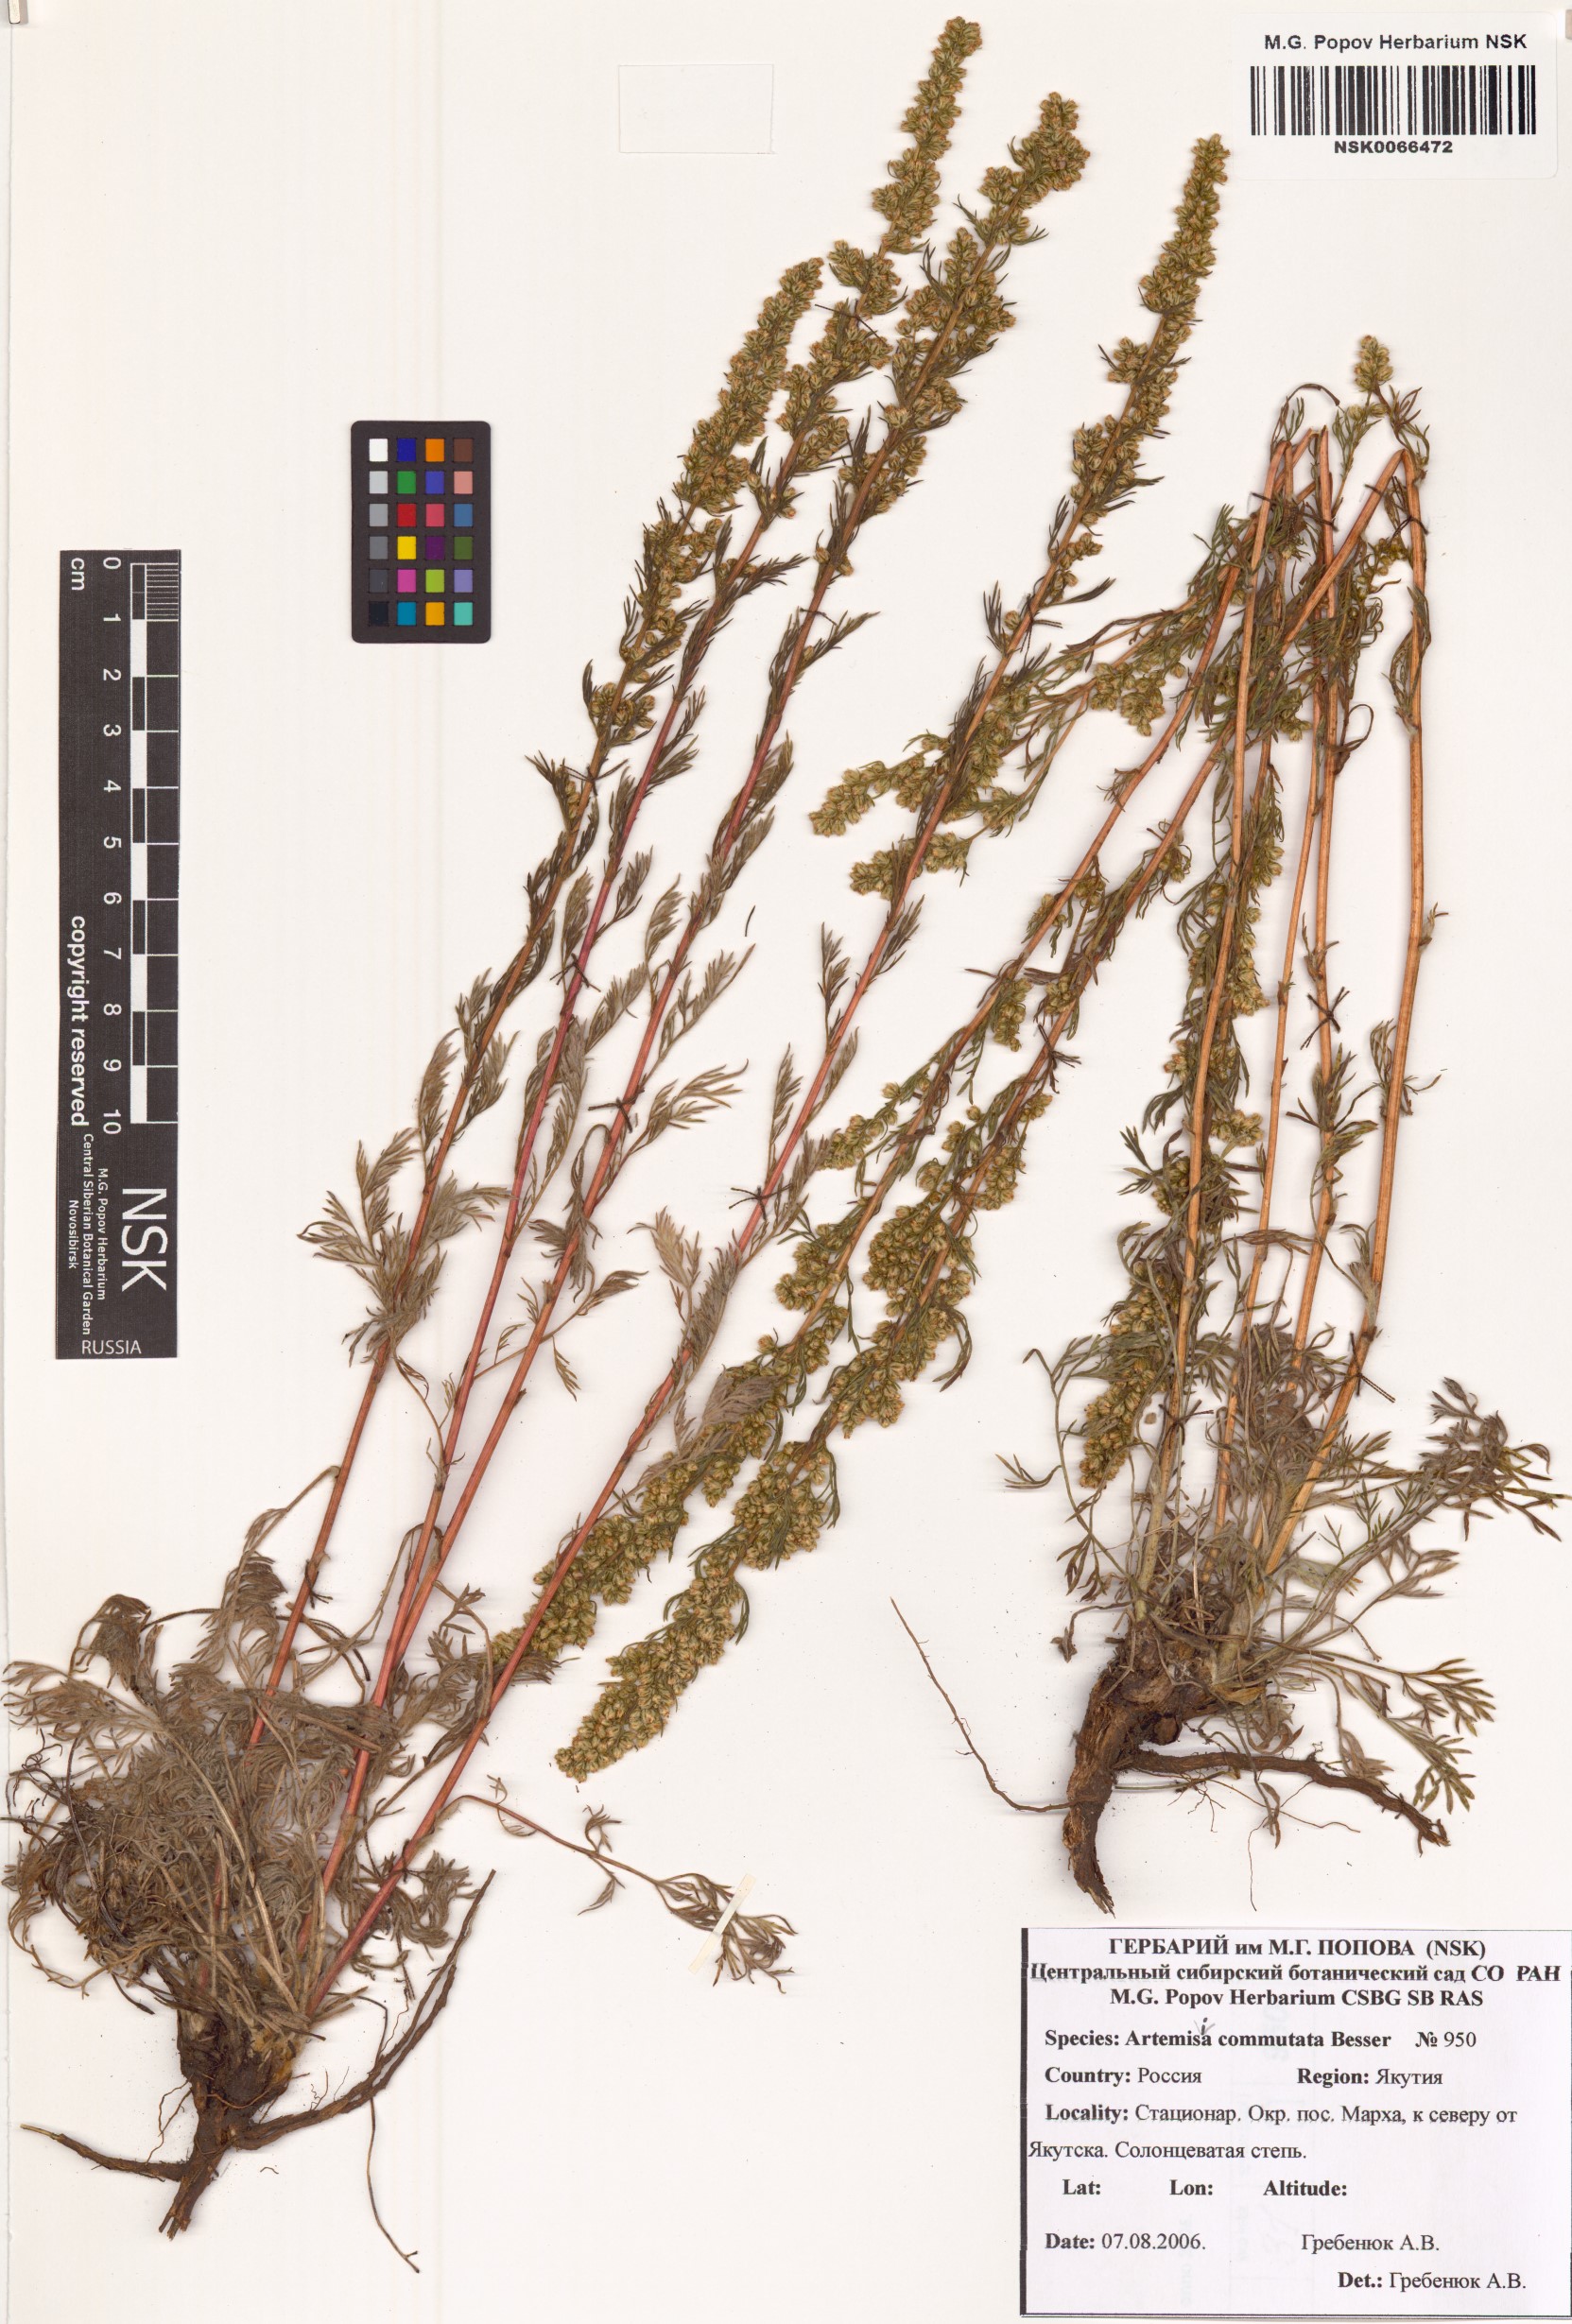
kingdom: Plantae
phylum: Tracheophyta
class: Magnoliopsida
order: Asterales
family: Asteraceae
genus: Artemisia
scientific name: Artemisia pubescens
